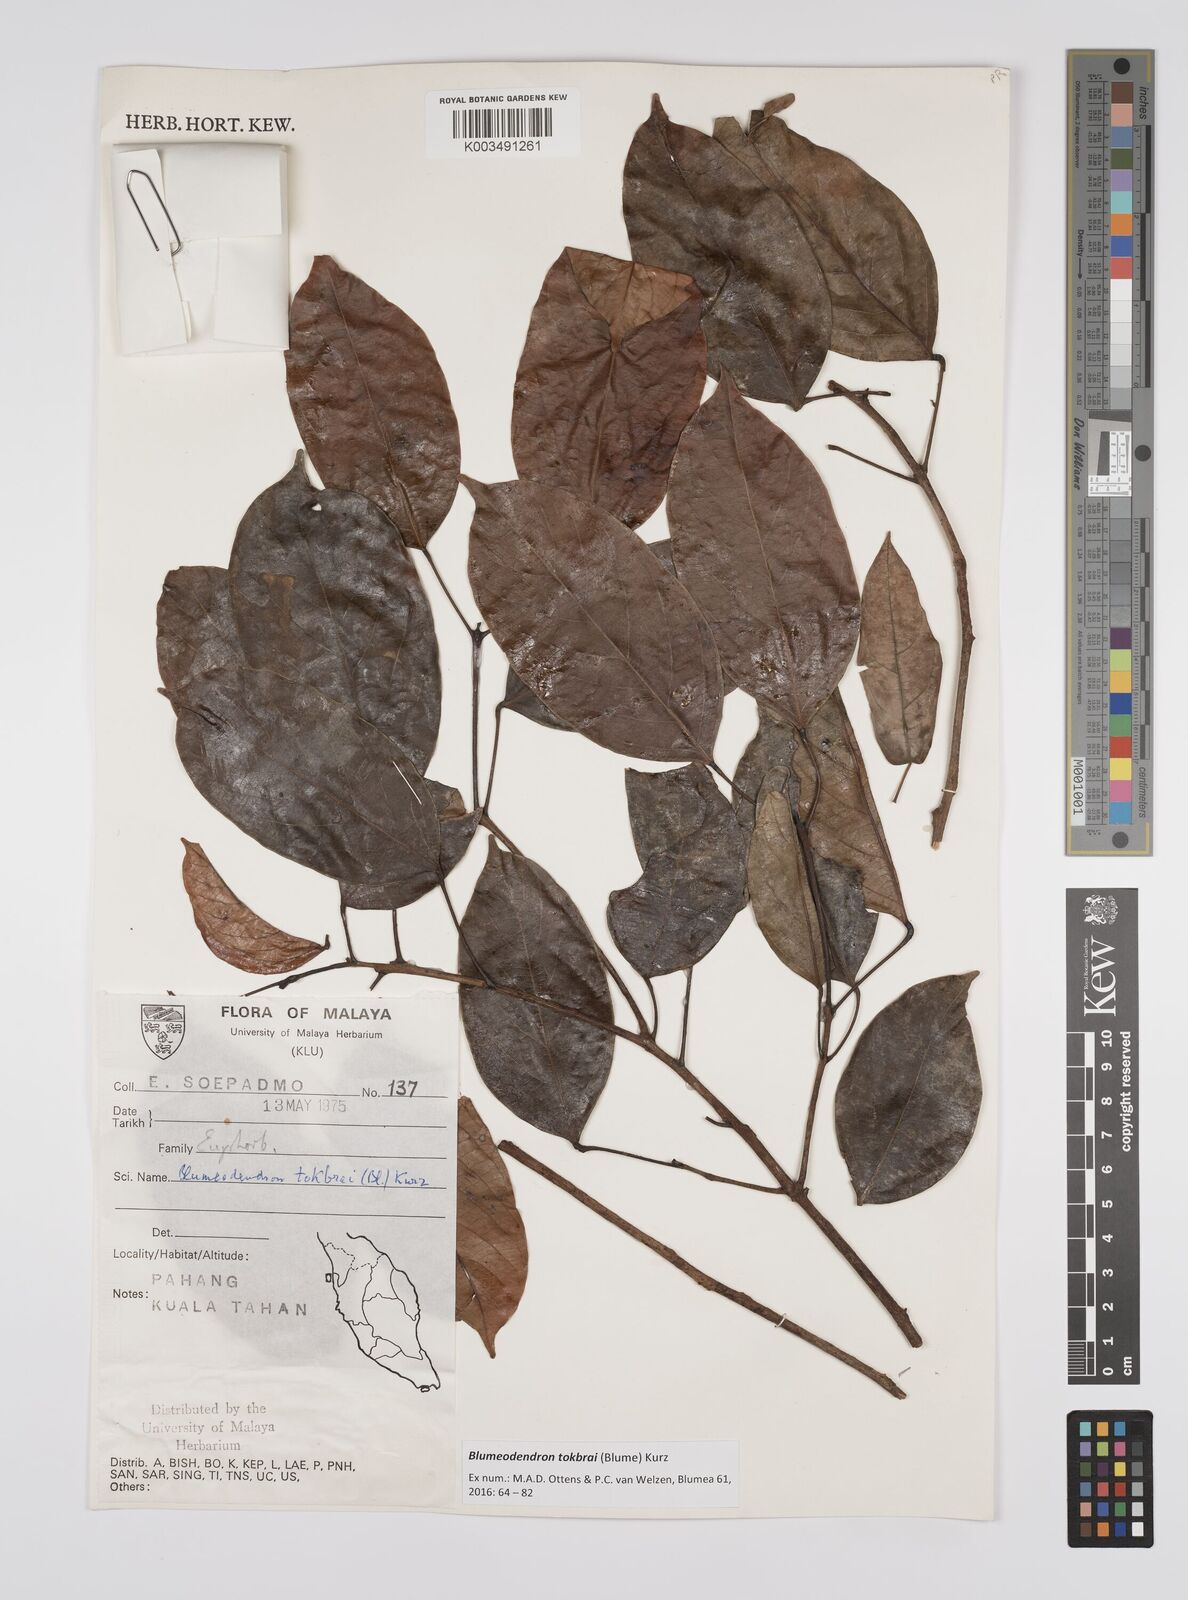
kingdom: Plantae
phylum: Tracheophyta
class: Magnoliopsida
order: Malpighiales
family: Euphorbiaceae
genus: Blumeodendron
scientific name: Blumeodendron tokbrai
